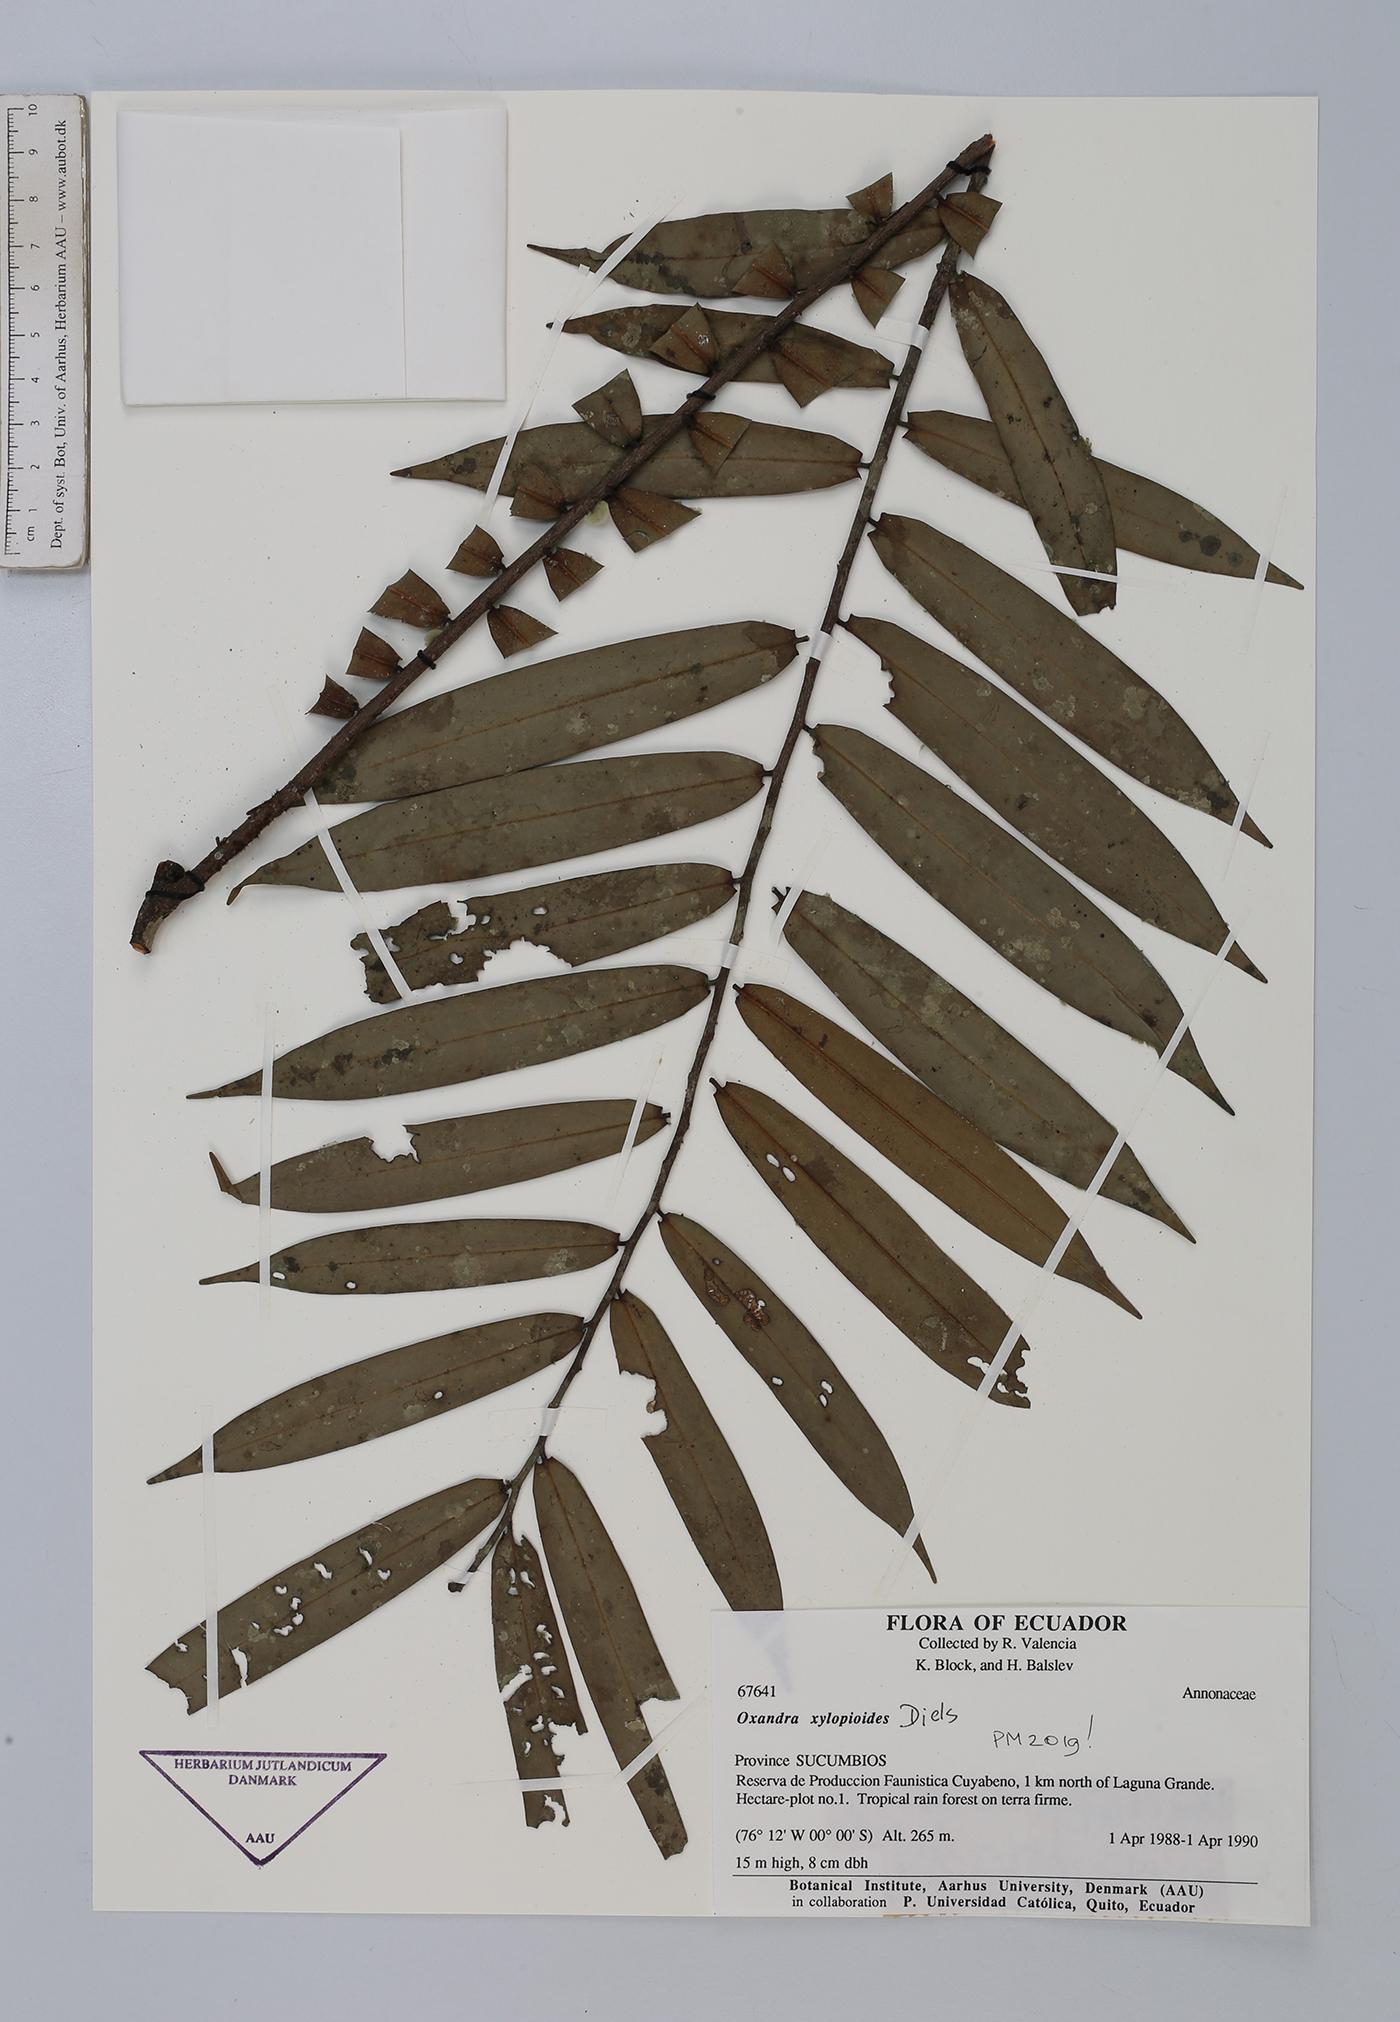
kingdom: Plantae
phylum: Tracheophyta
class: Magnoliopsida
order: Magnoliales
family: Annonaceae
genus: Oxandra
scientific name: Oxandra xylopioides
